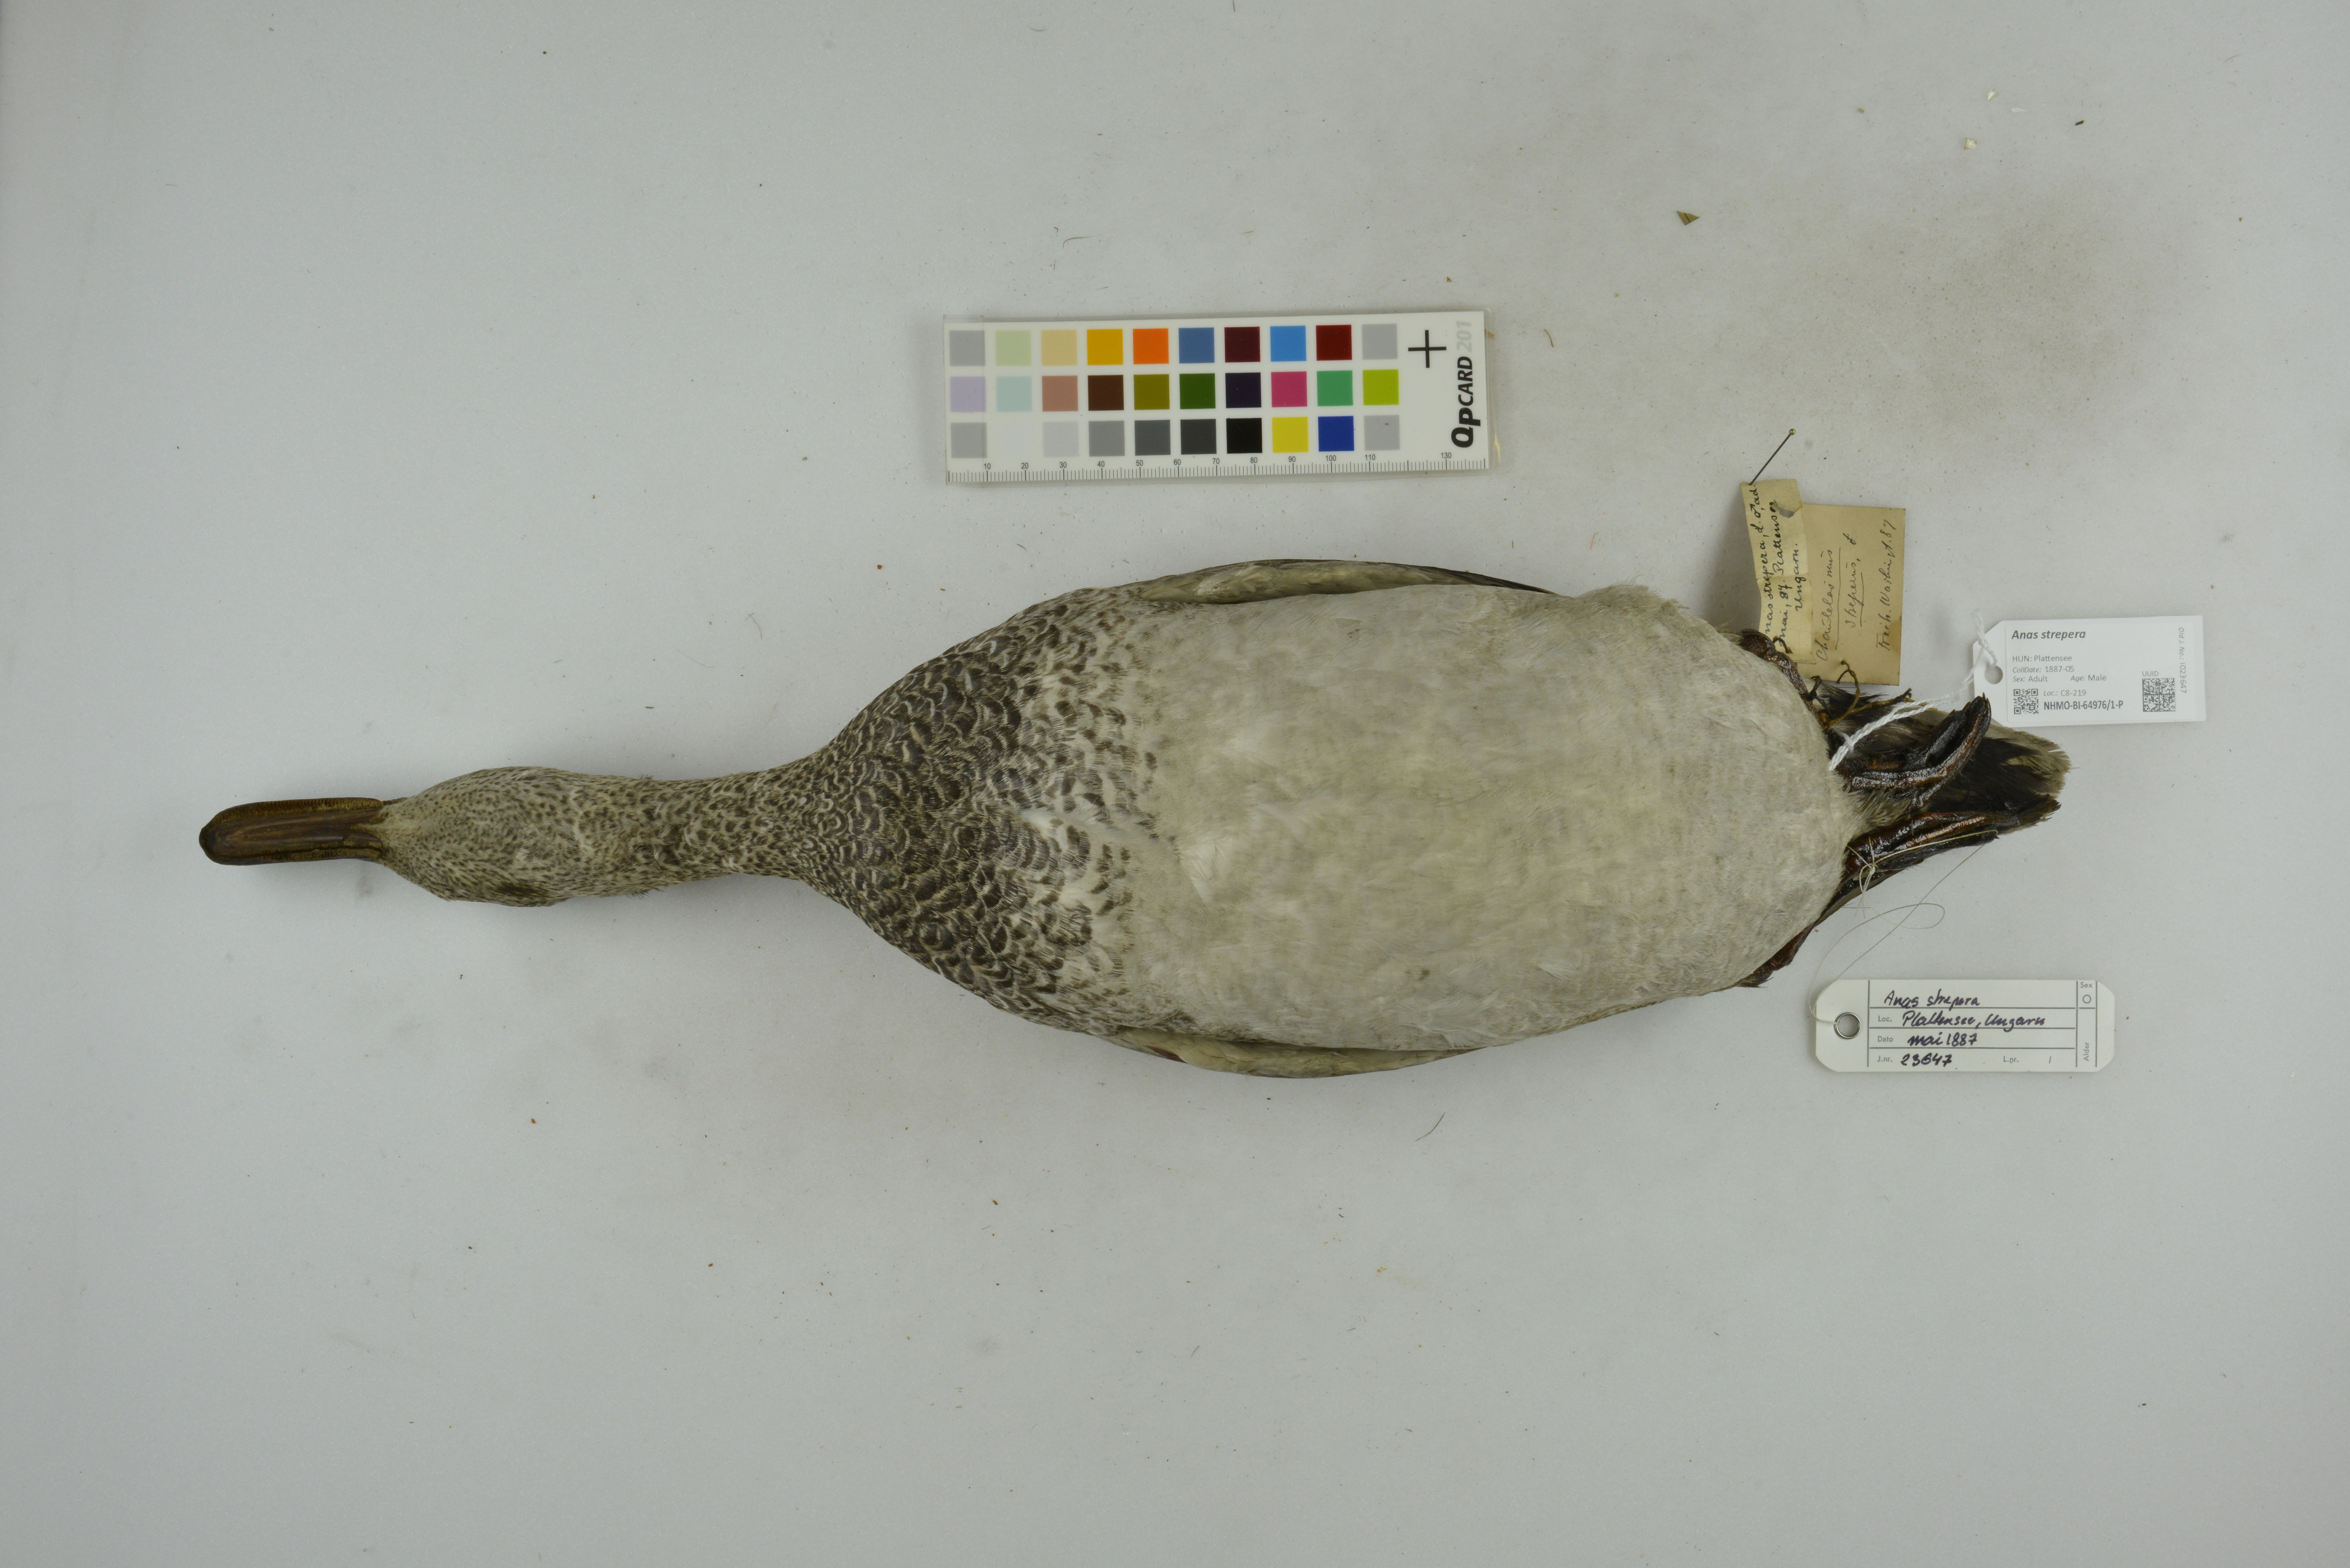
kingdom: Animalia
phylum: Chordata
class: Aves
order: Anseriformes
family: Anatidae
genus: Mareca
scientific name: Mareca strepera
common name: Gadwall
